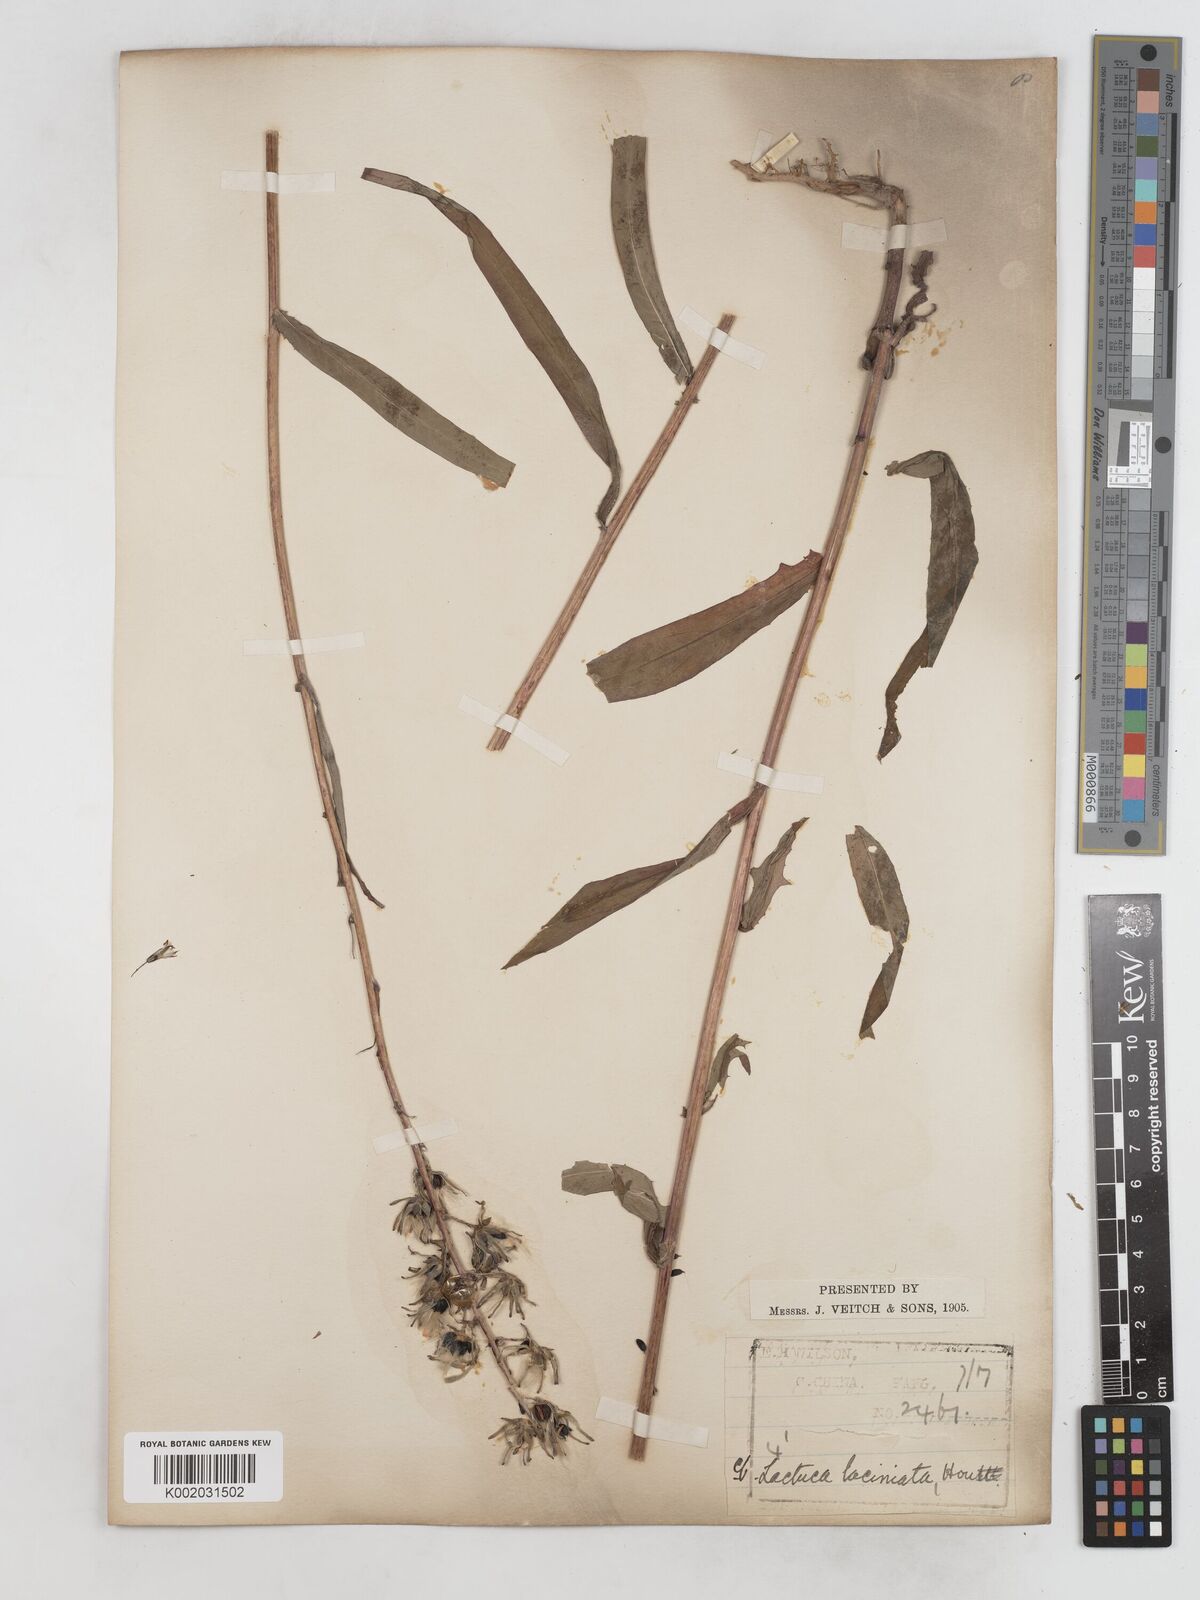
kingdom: Plantae
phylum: Tracheophyta
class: Magnoliopsida
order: Asterales
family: Asteraceae
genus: Lactuca
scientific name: Lactuca indica
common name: Wild lettuce
